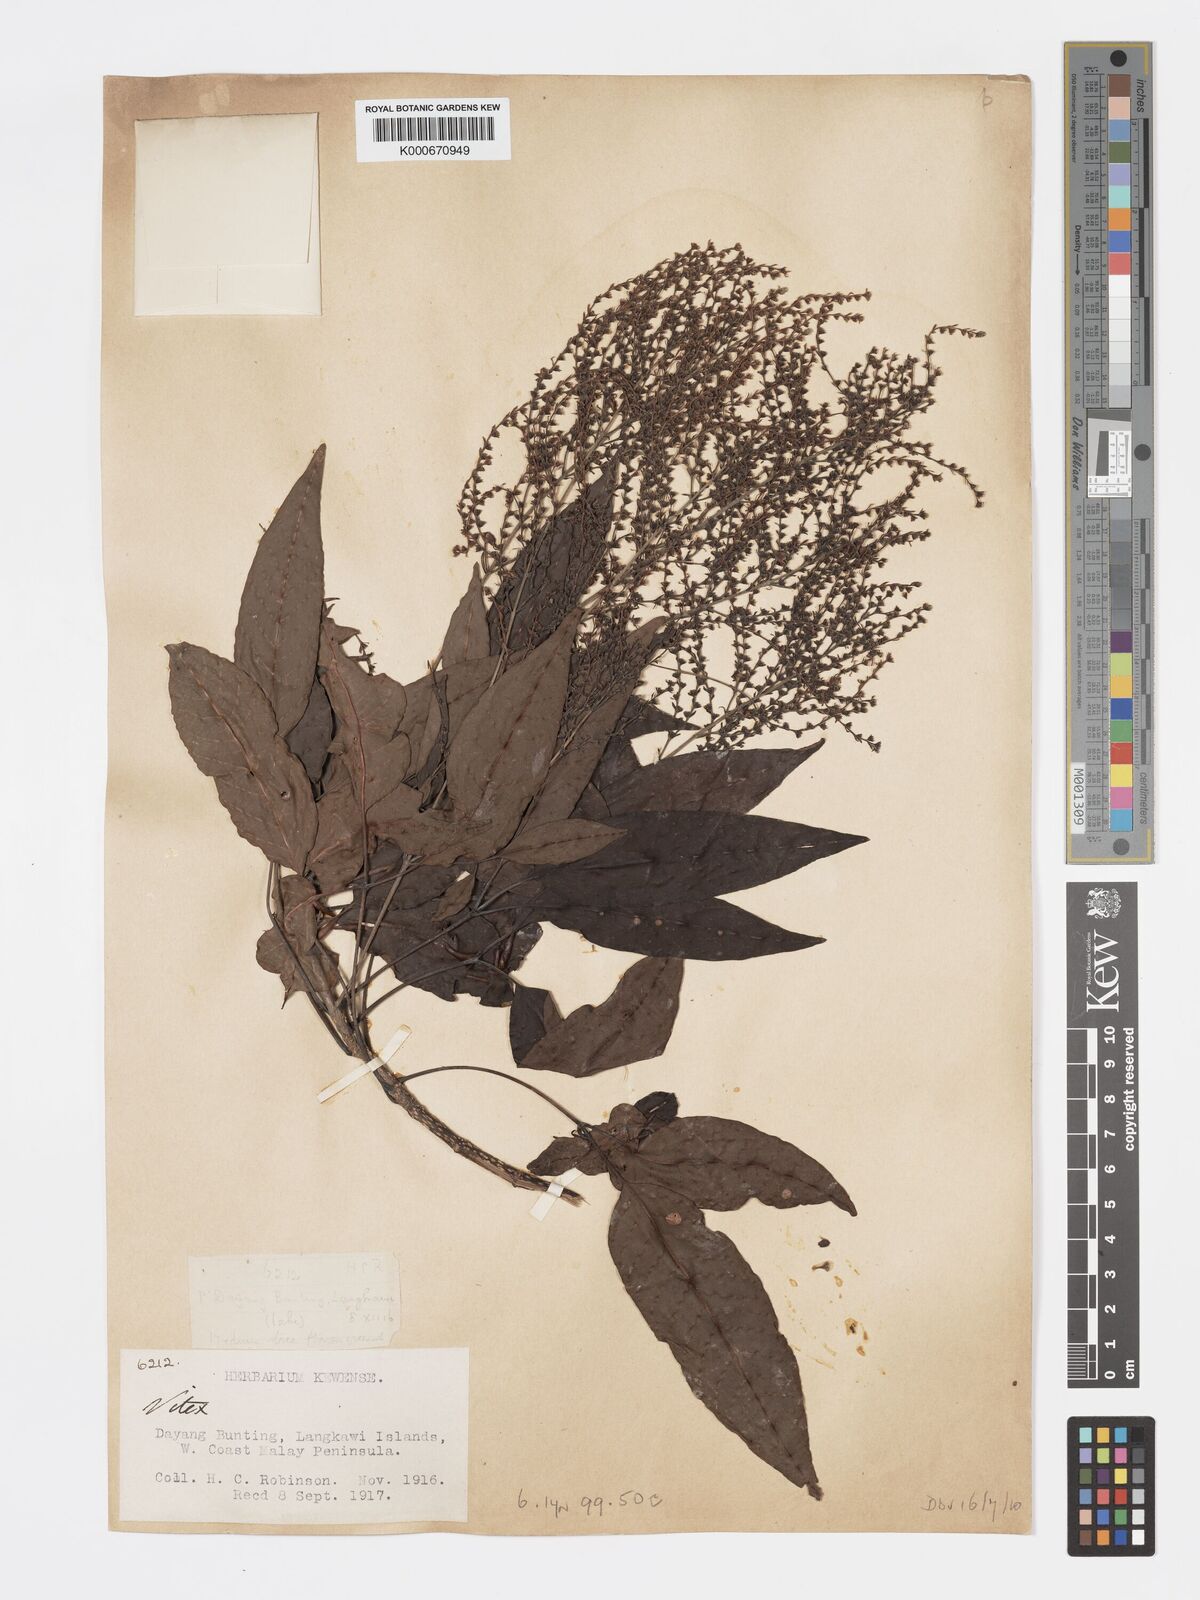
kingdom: Plantae
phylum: Tracheophyta
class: Magnoliopsida
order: Lamiales
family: Lamiaceae
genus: Vitex
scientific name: Vitex siamica
